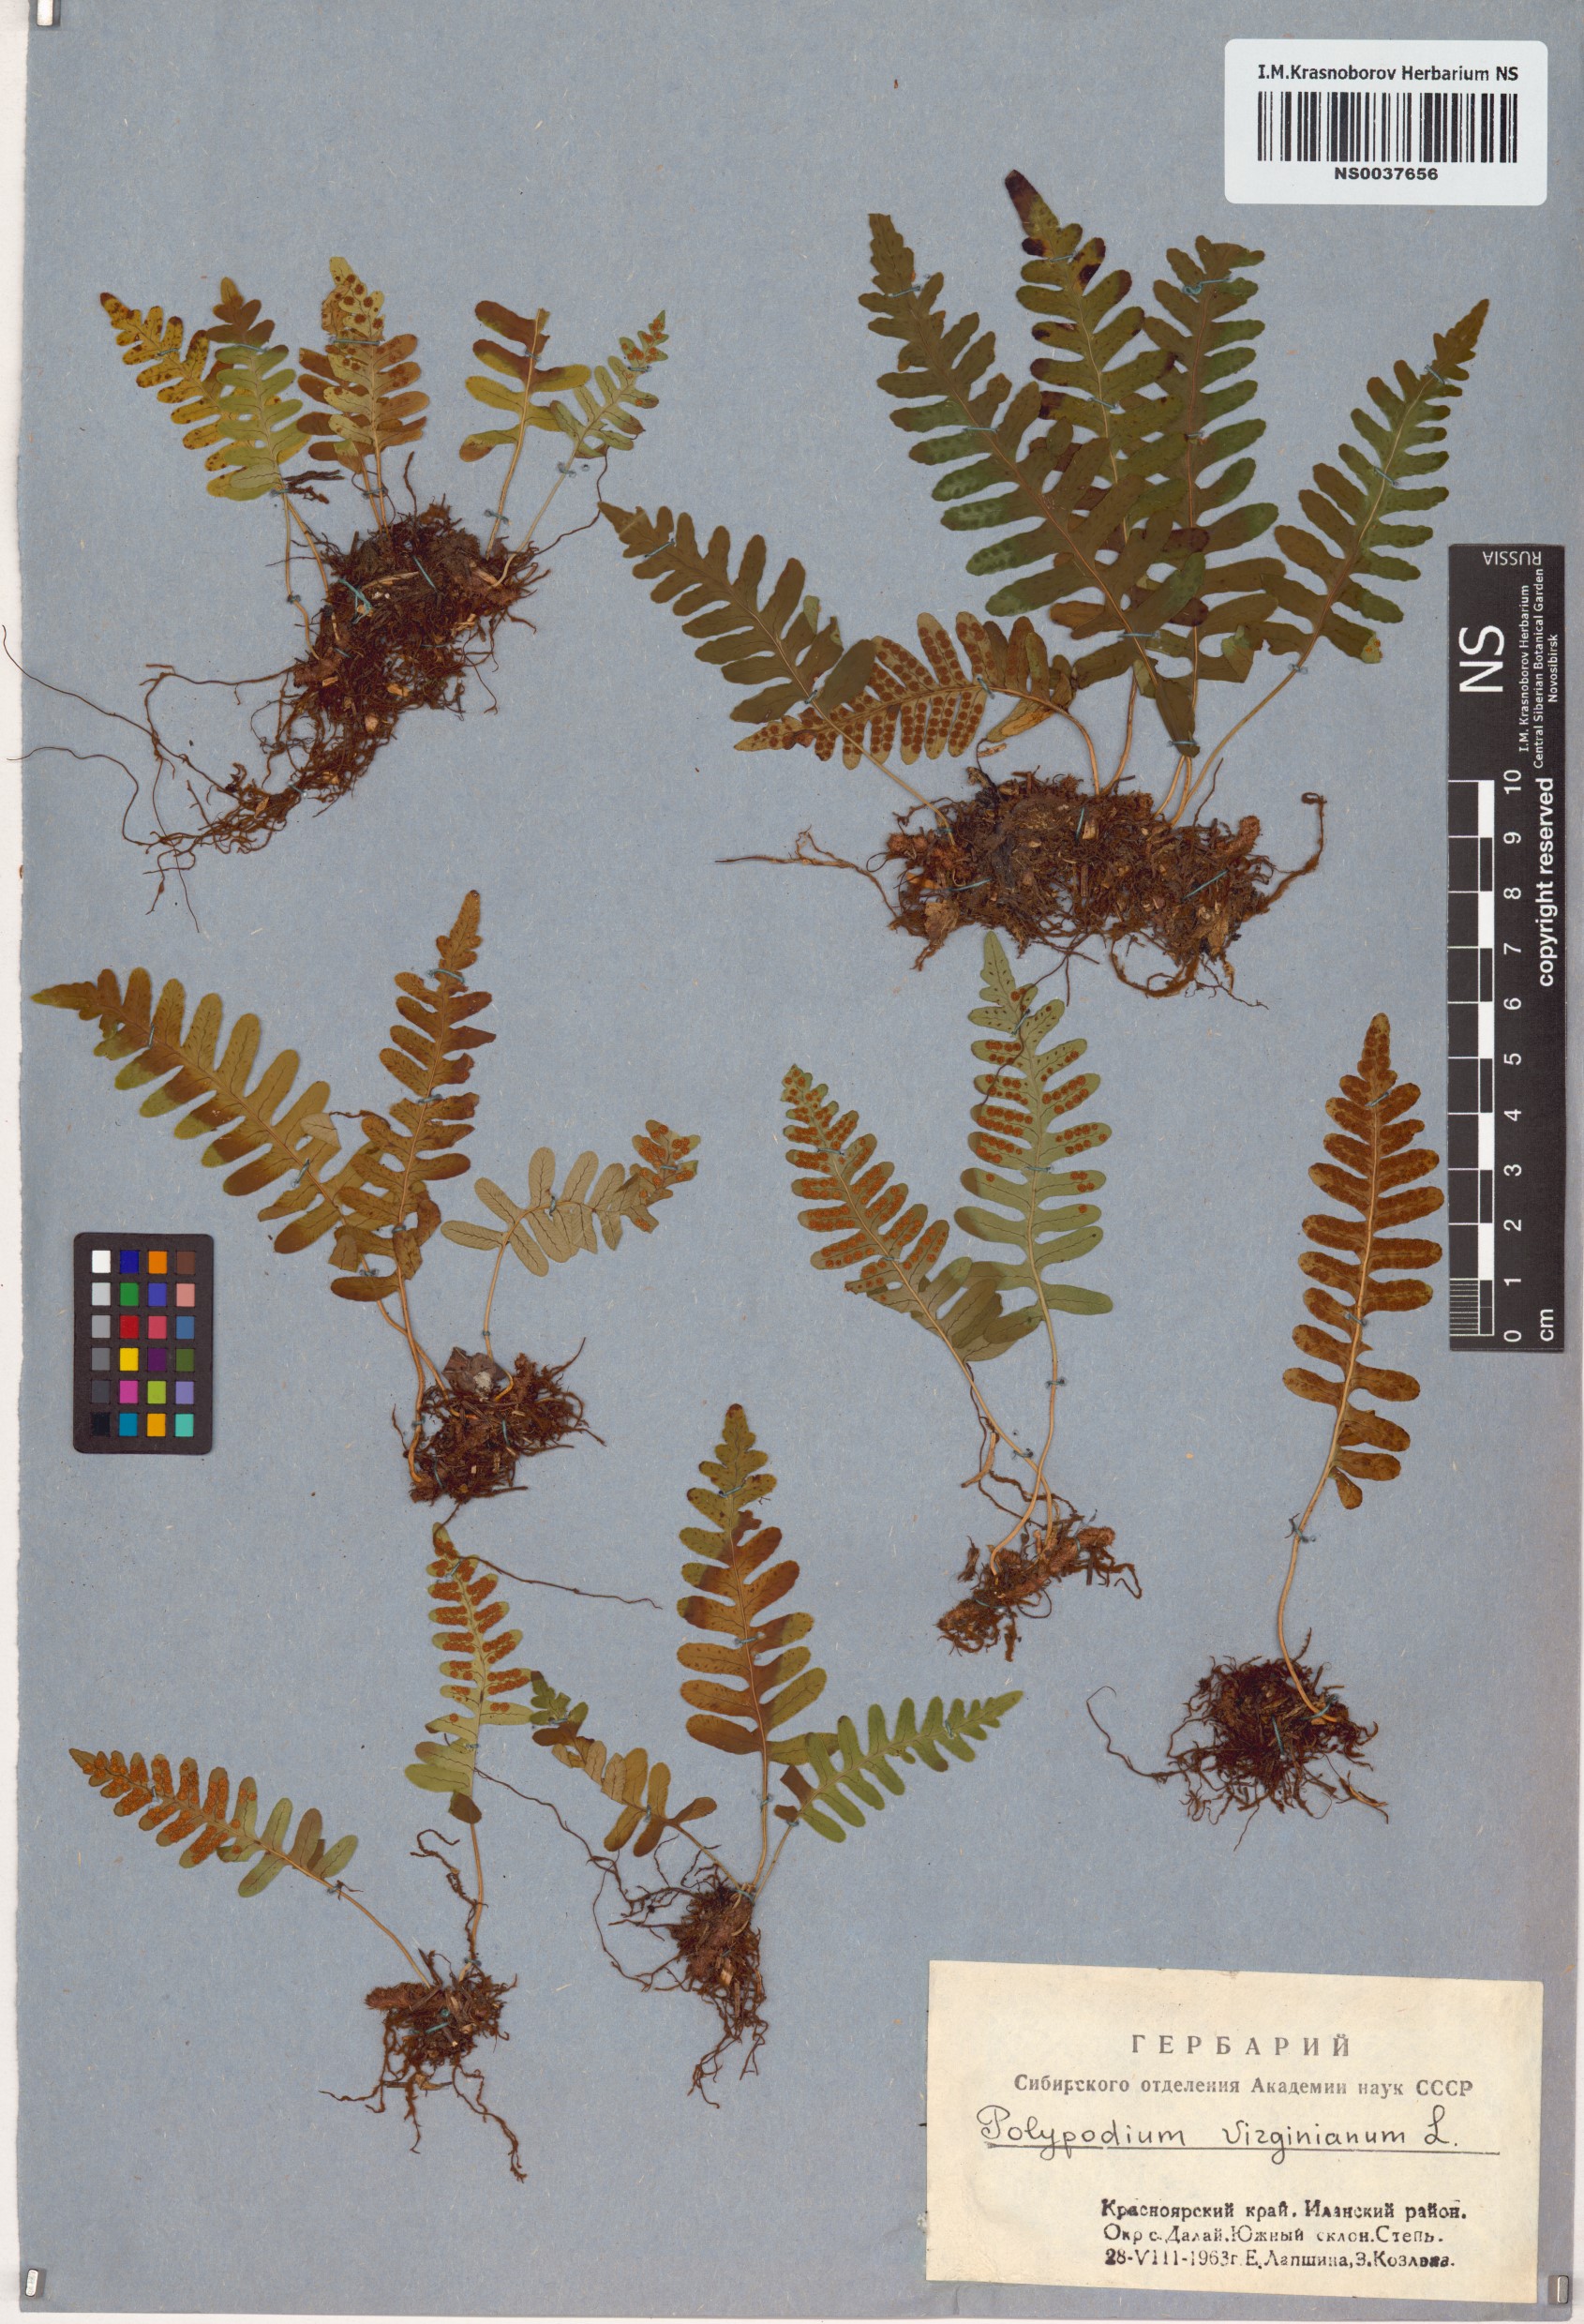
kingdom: Plantae
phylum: Tracheophyta
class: Polypodiopsida
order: Polypodiales
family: Polypodiaceae
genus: Polypodium
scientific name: Polypodium virginianum
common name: American wall fern
